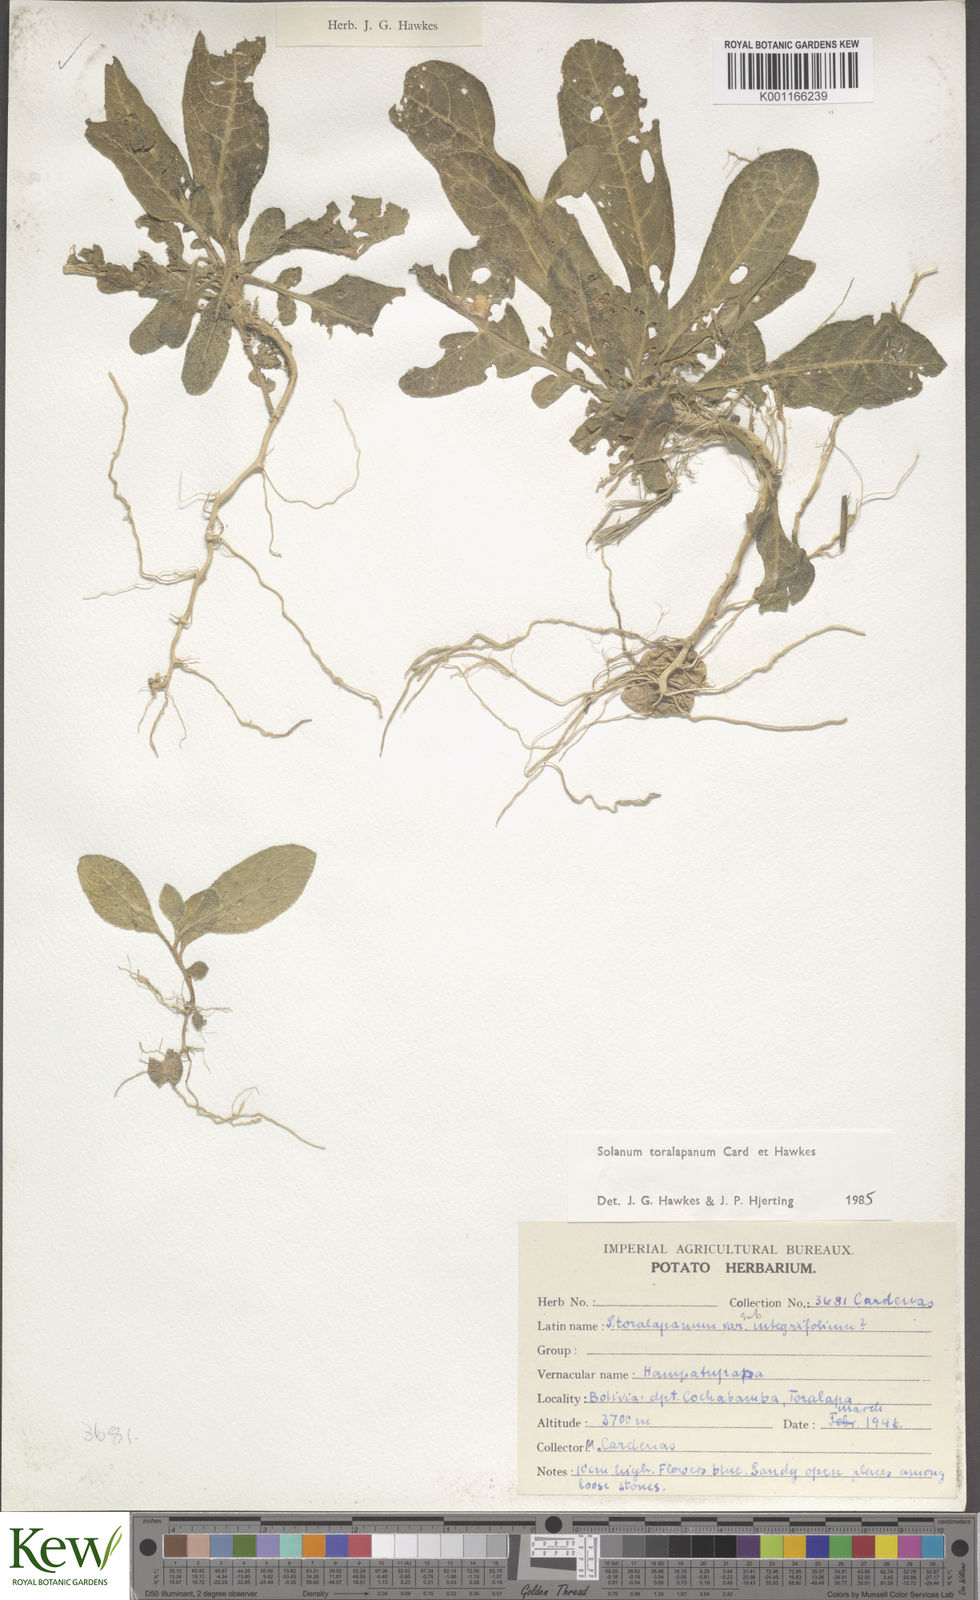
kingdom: Plantae
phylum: Tracheophyta
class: Magnoliopsida
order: Solanales
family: Solanaceae
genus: Solanum
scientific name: Solanum
